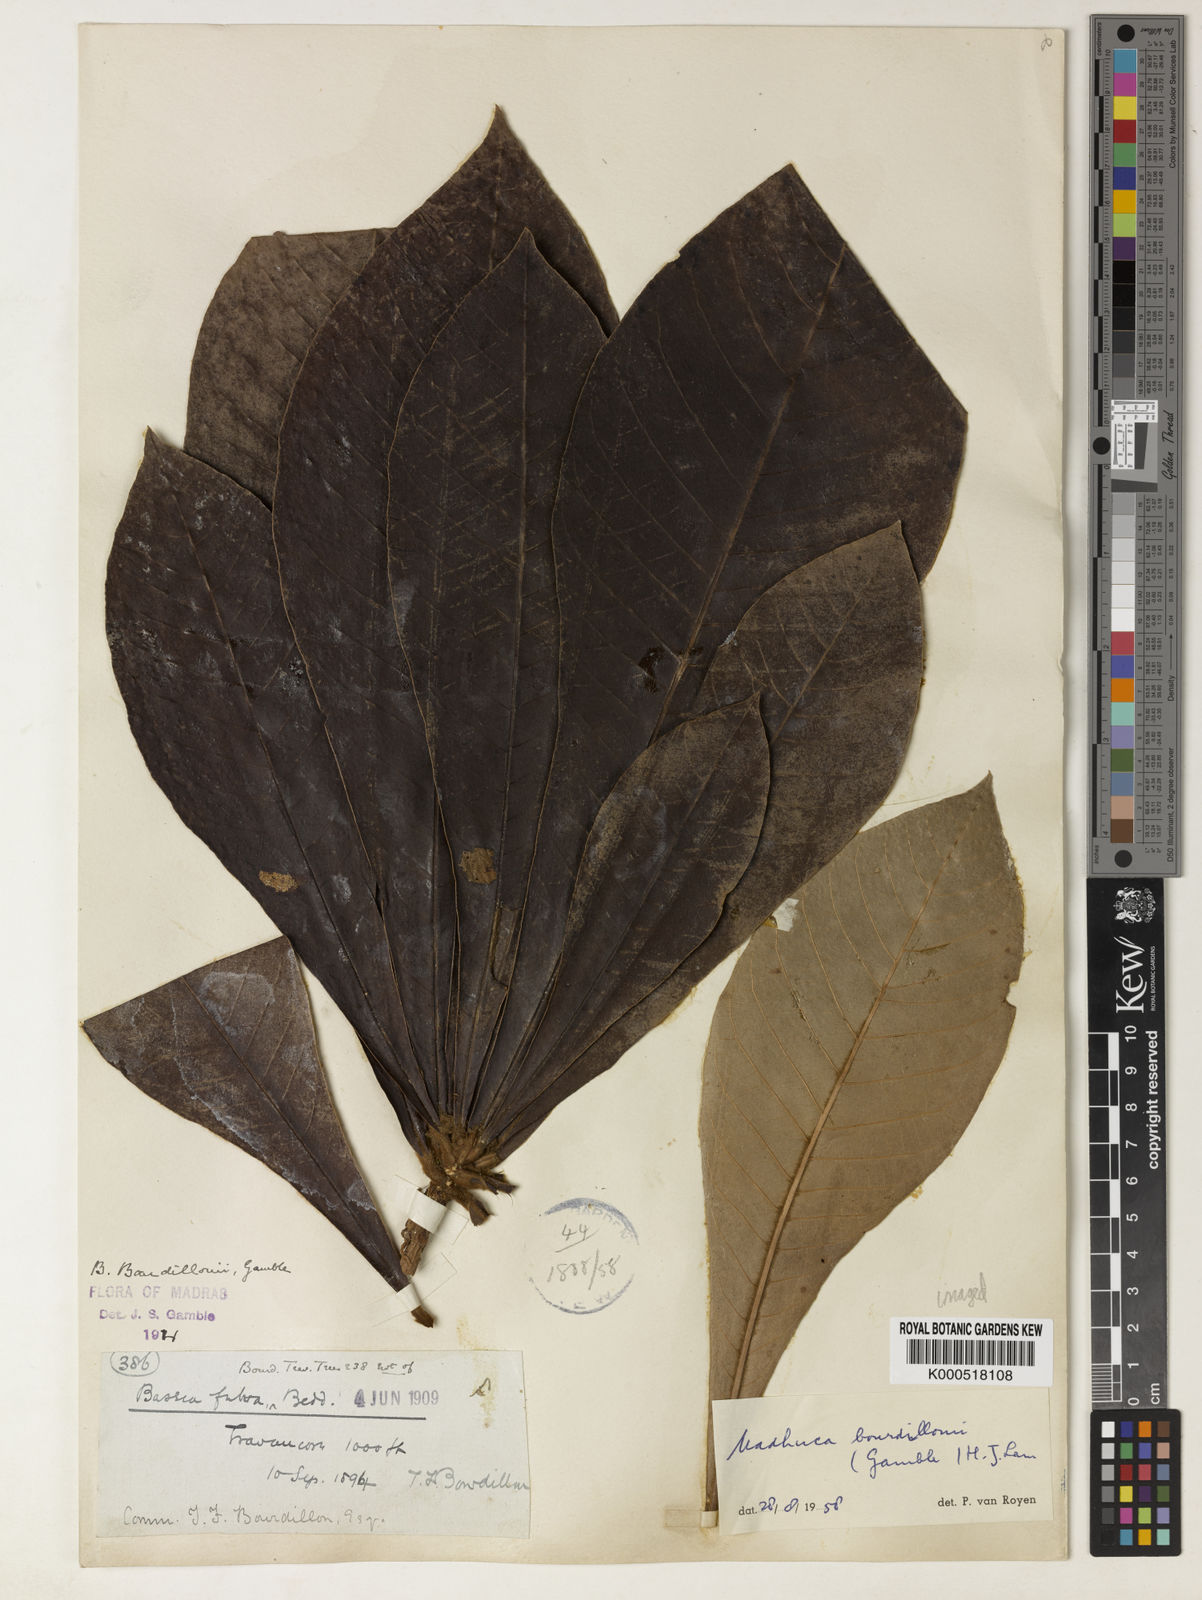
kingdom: Plantae
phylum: Tracheophyta
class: Magnoliopsida
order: Ericales
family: Sapotaceae
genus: Madhuca
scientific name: Madhuca bourdillonii
